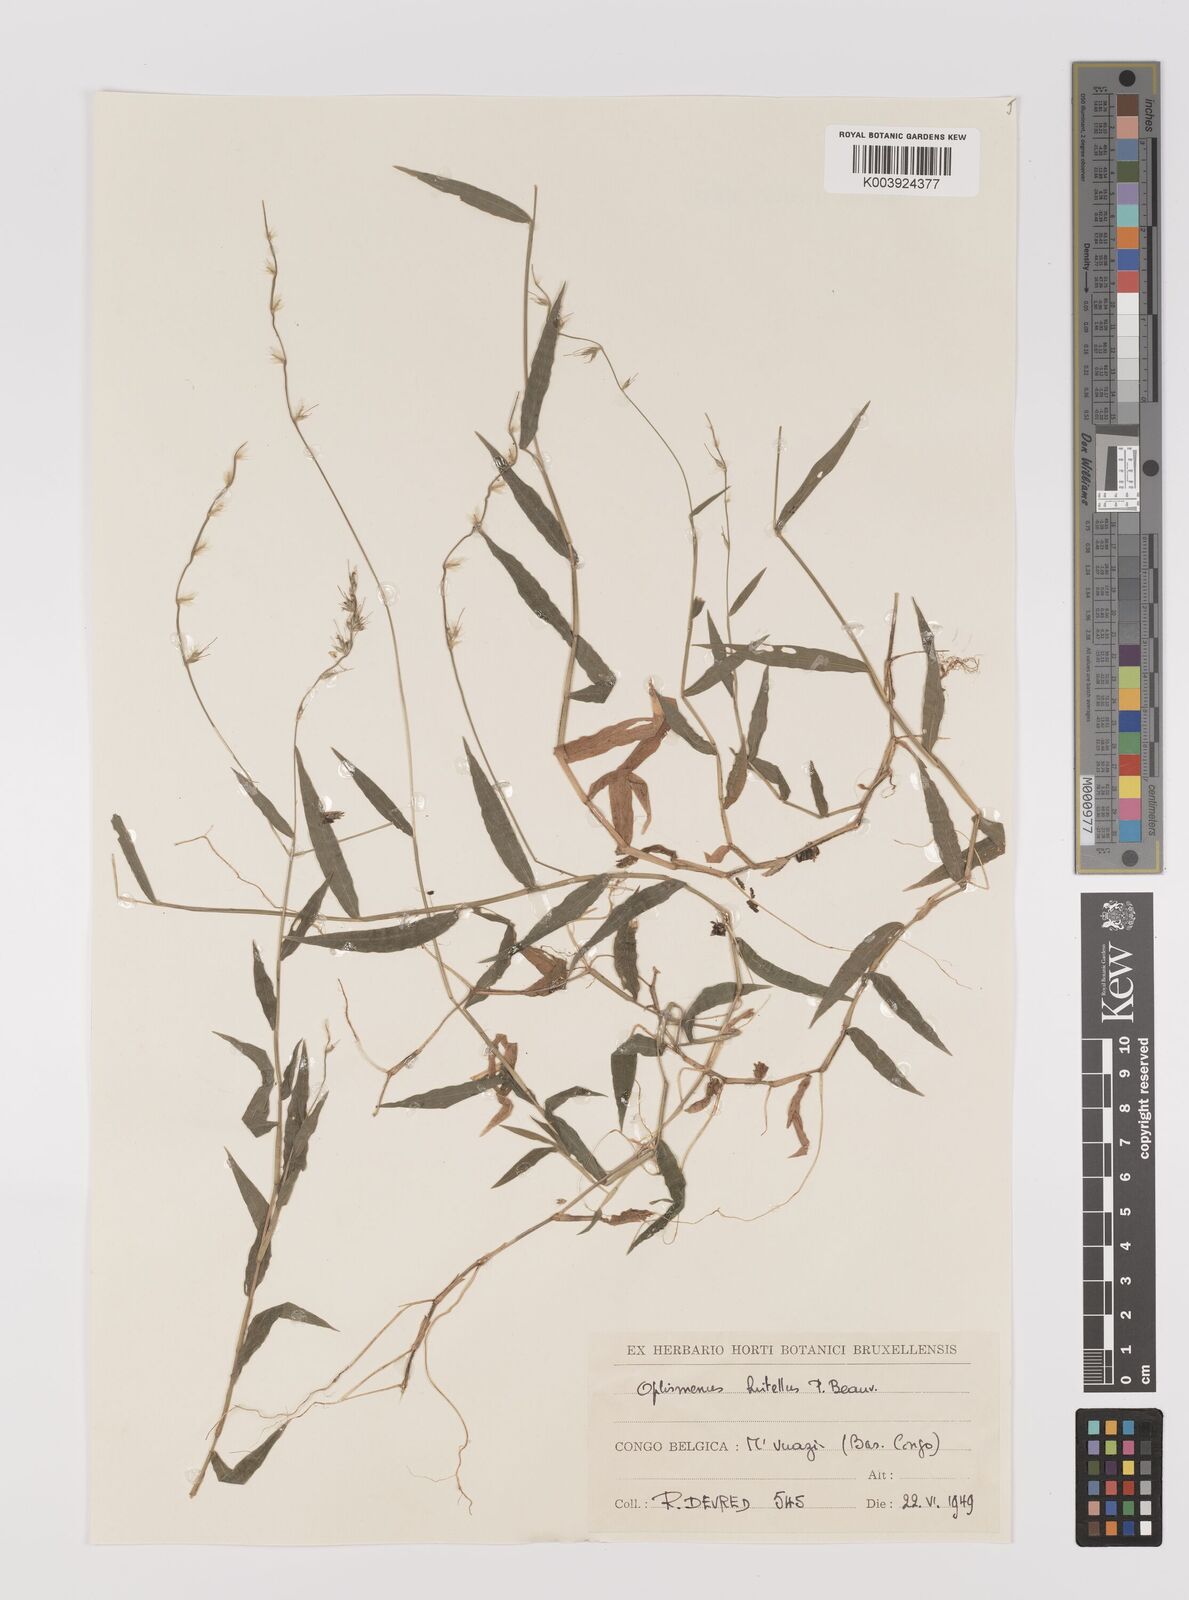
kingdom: Plantae
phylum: Tracheophyta
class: Liliopsida
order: Poales
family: Poaceae
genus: Oplismenus
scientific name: Oplismenus hirtellus
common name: Basketgrass
